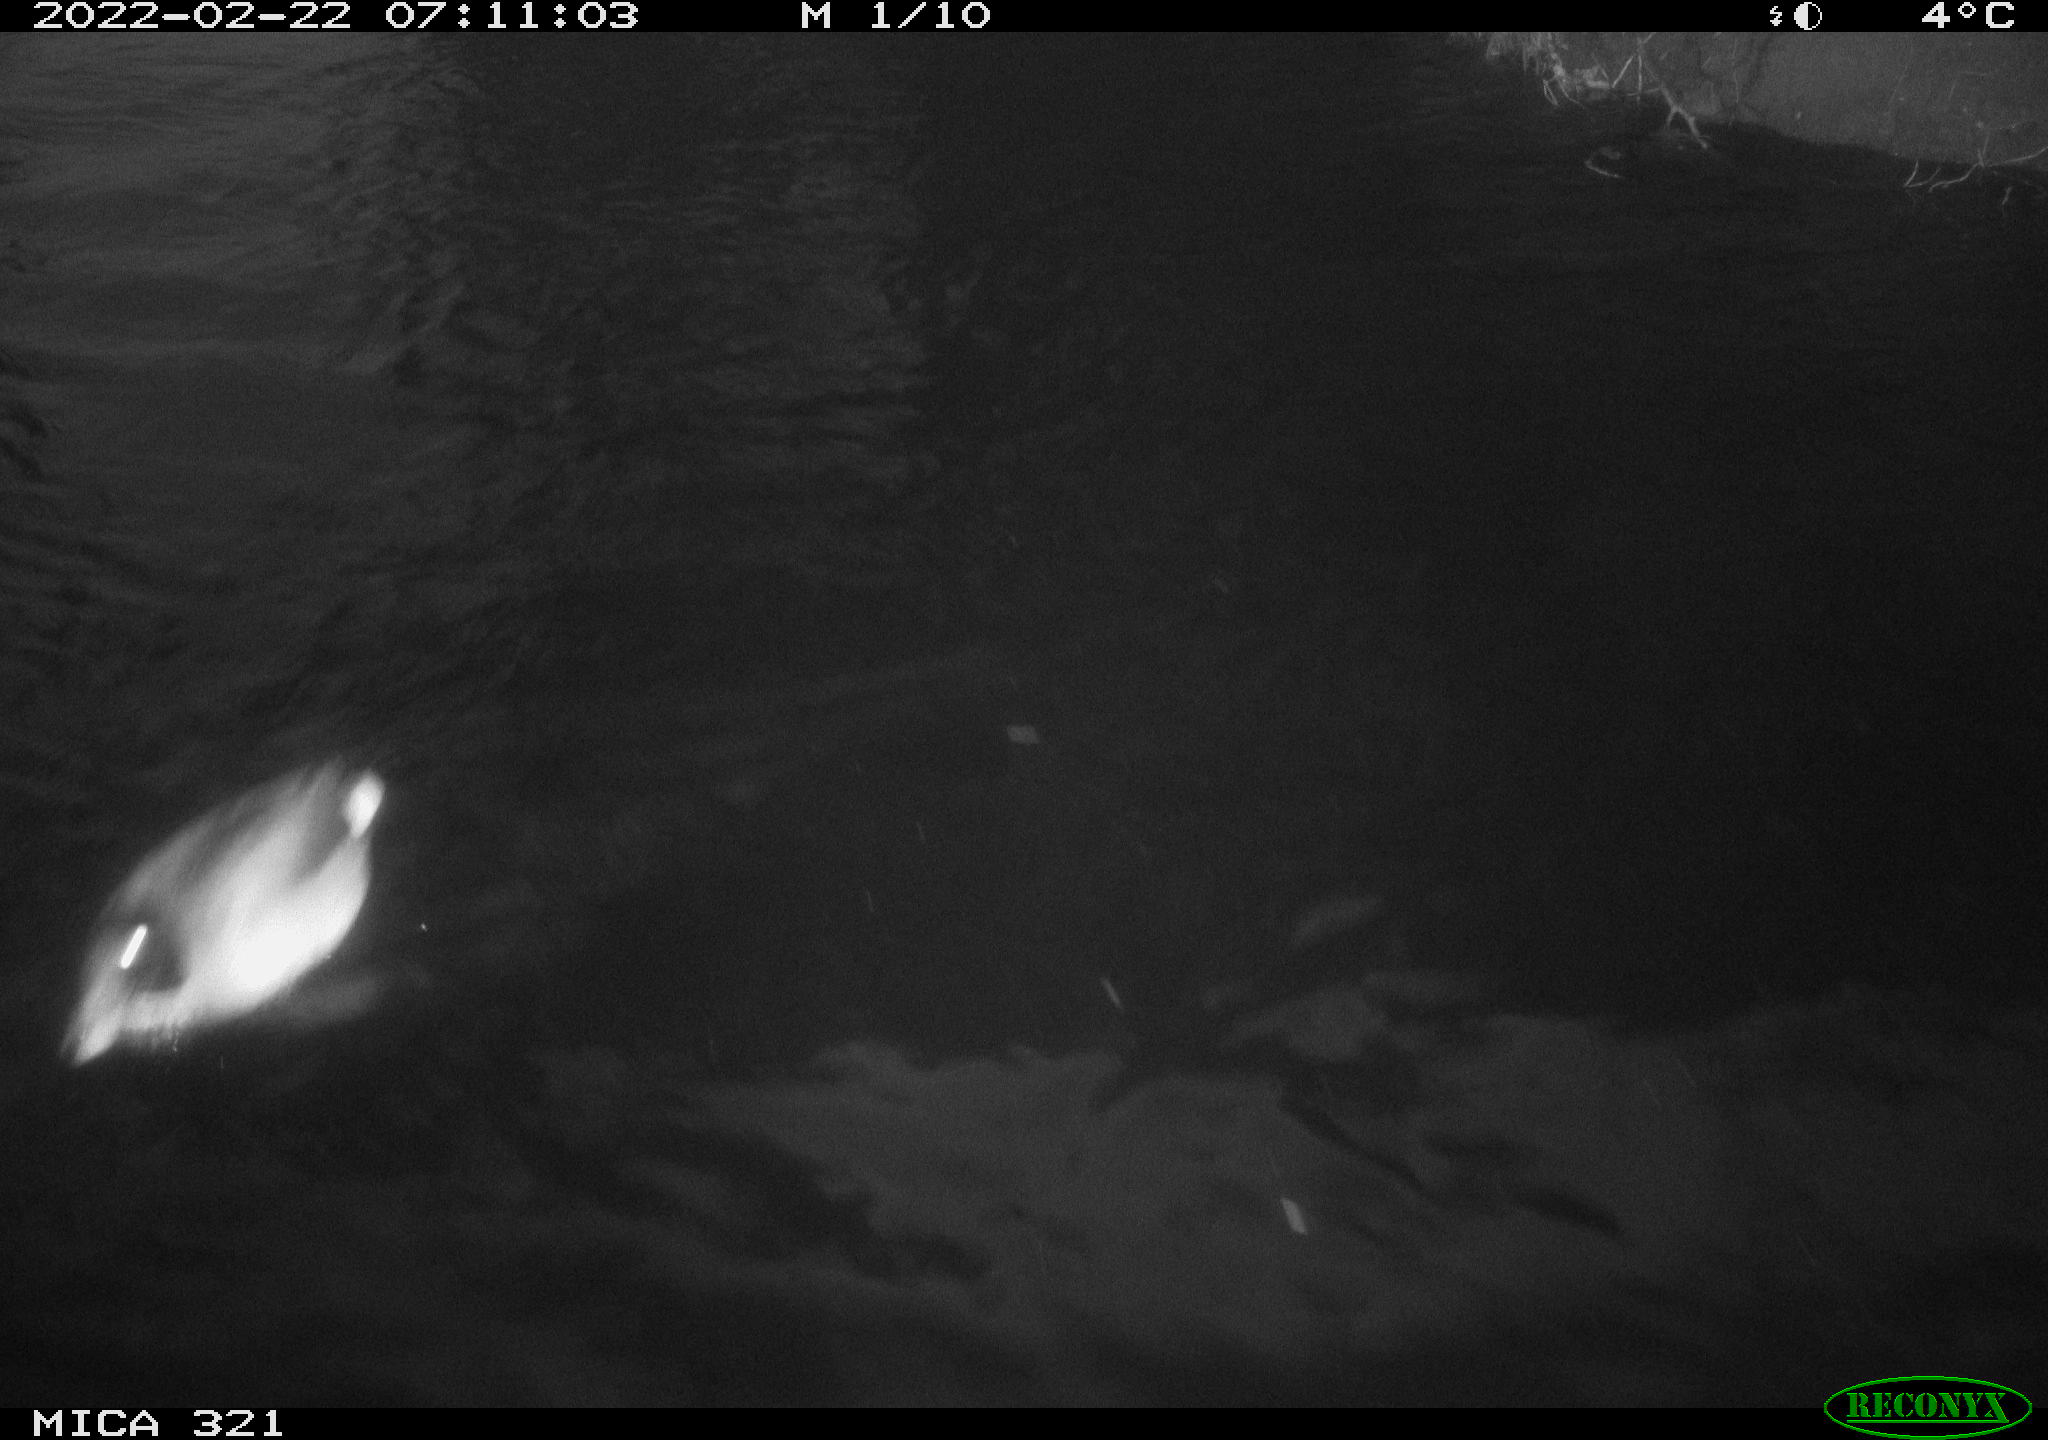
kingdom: Animalia
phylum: Chordata
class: Aves
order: Anseriformes
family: Anatidae
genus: Anas
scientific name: Anas platyrhynchos
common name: Mallard
